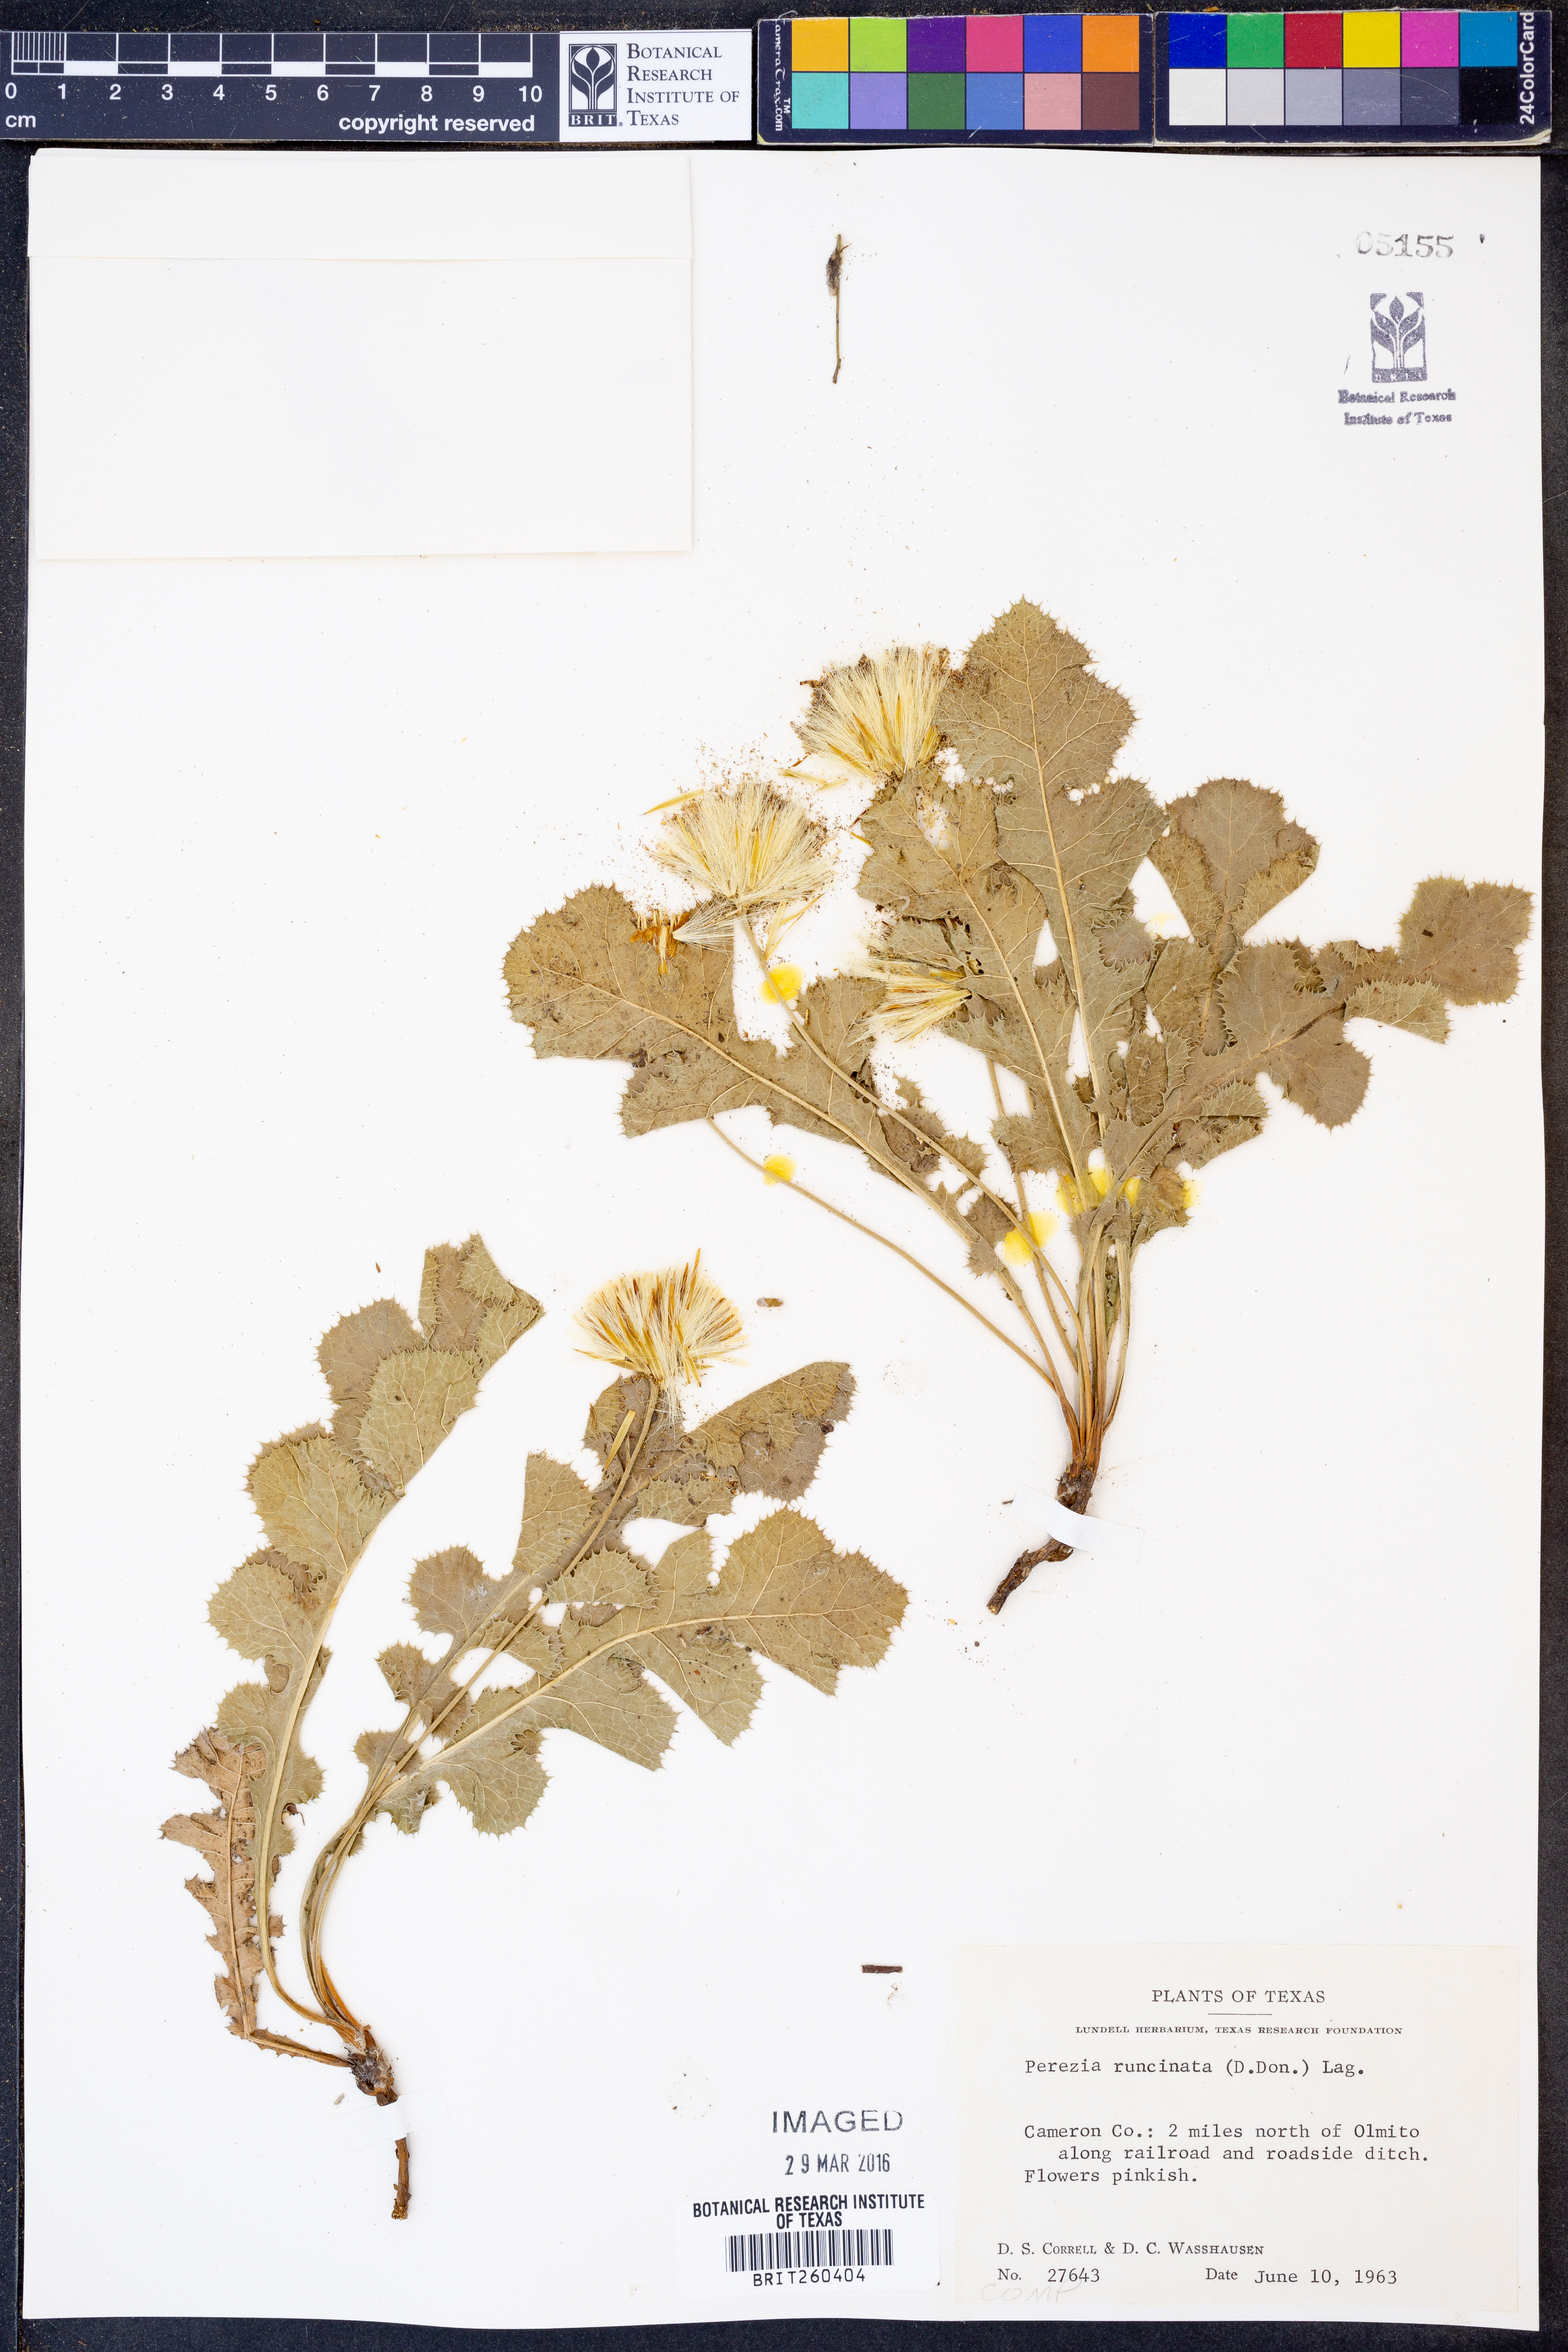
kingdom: Plantae
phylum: Tracheophyta
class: Magnoliopsida
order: Asterales
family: Asteraceae
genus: Acourtia
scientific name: Acourtia runcinata
